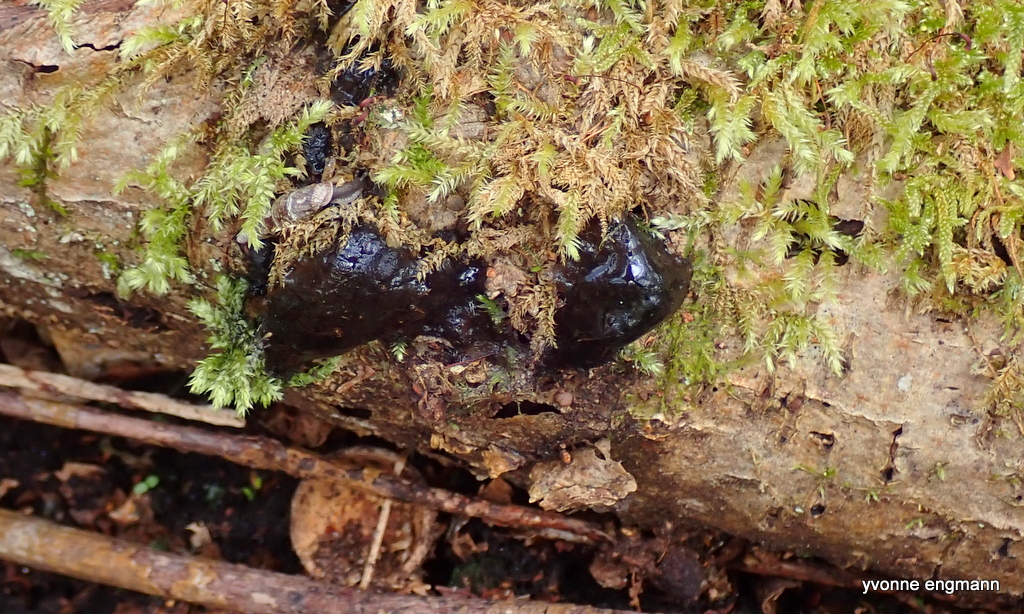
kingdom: Fungi
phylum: Basidiomycota
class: Agaricomycetes
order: Auriculariales
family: Auriculariaceae
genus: Exidia
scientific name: Exidia nigricans
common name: almindelig bævretop
